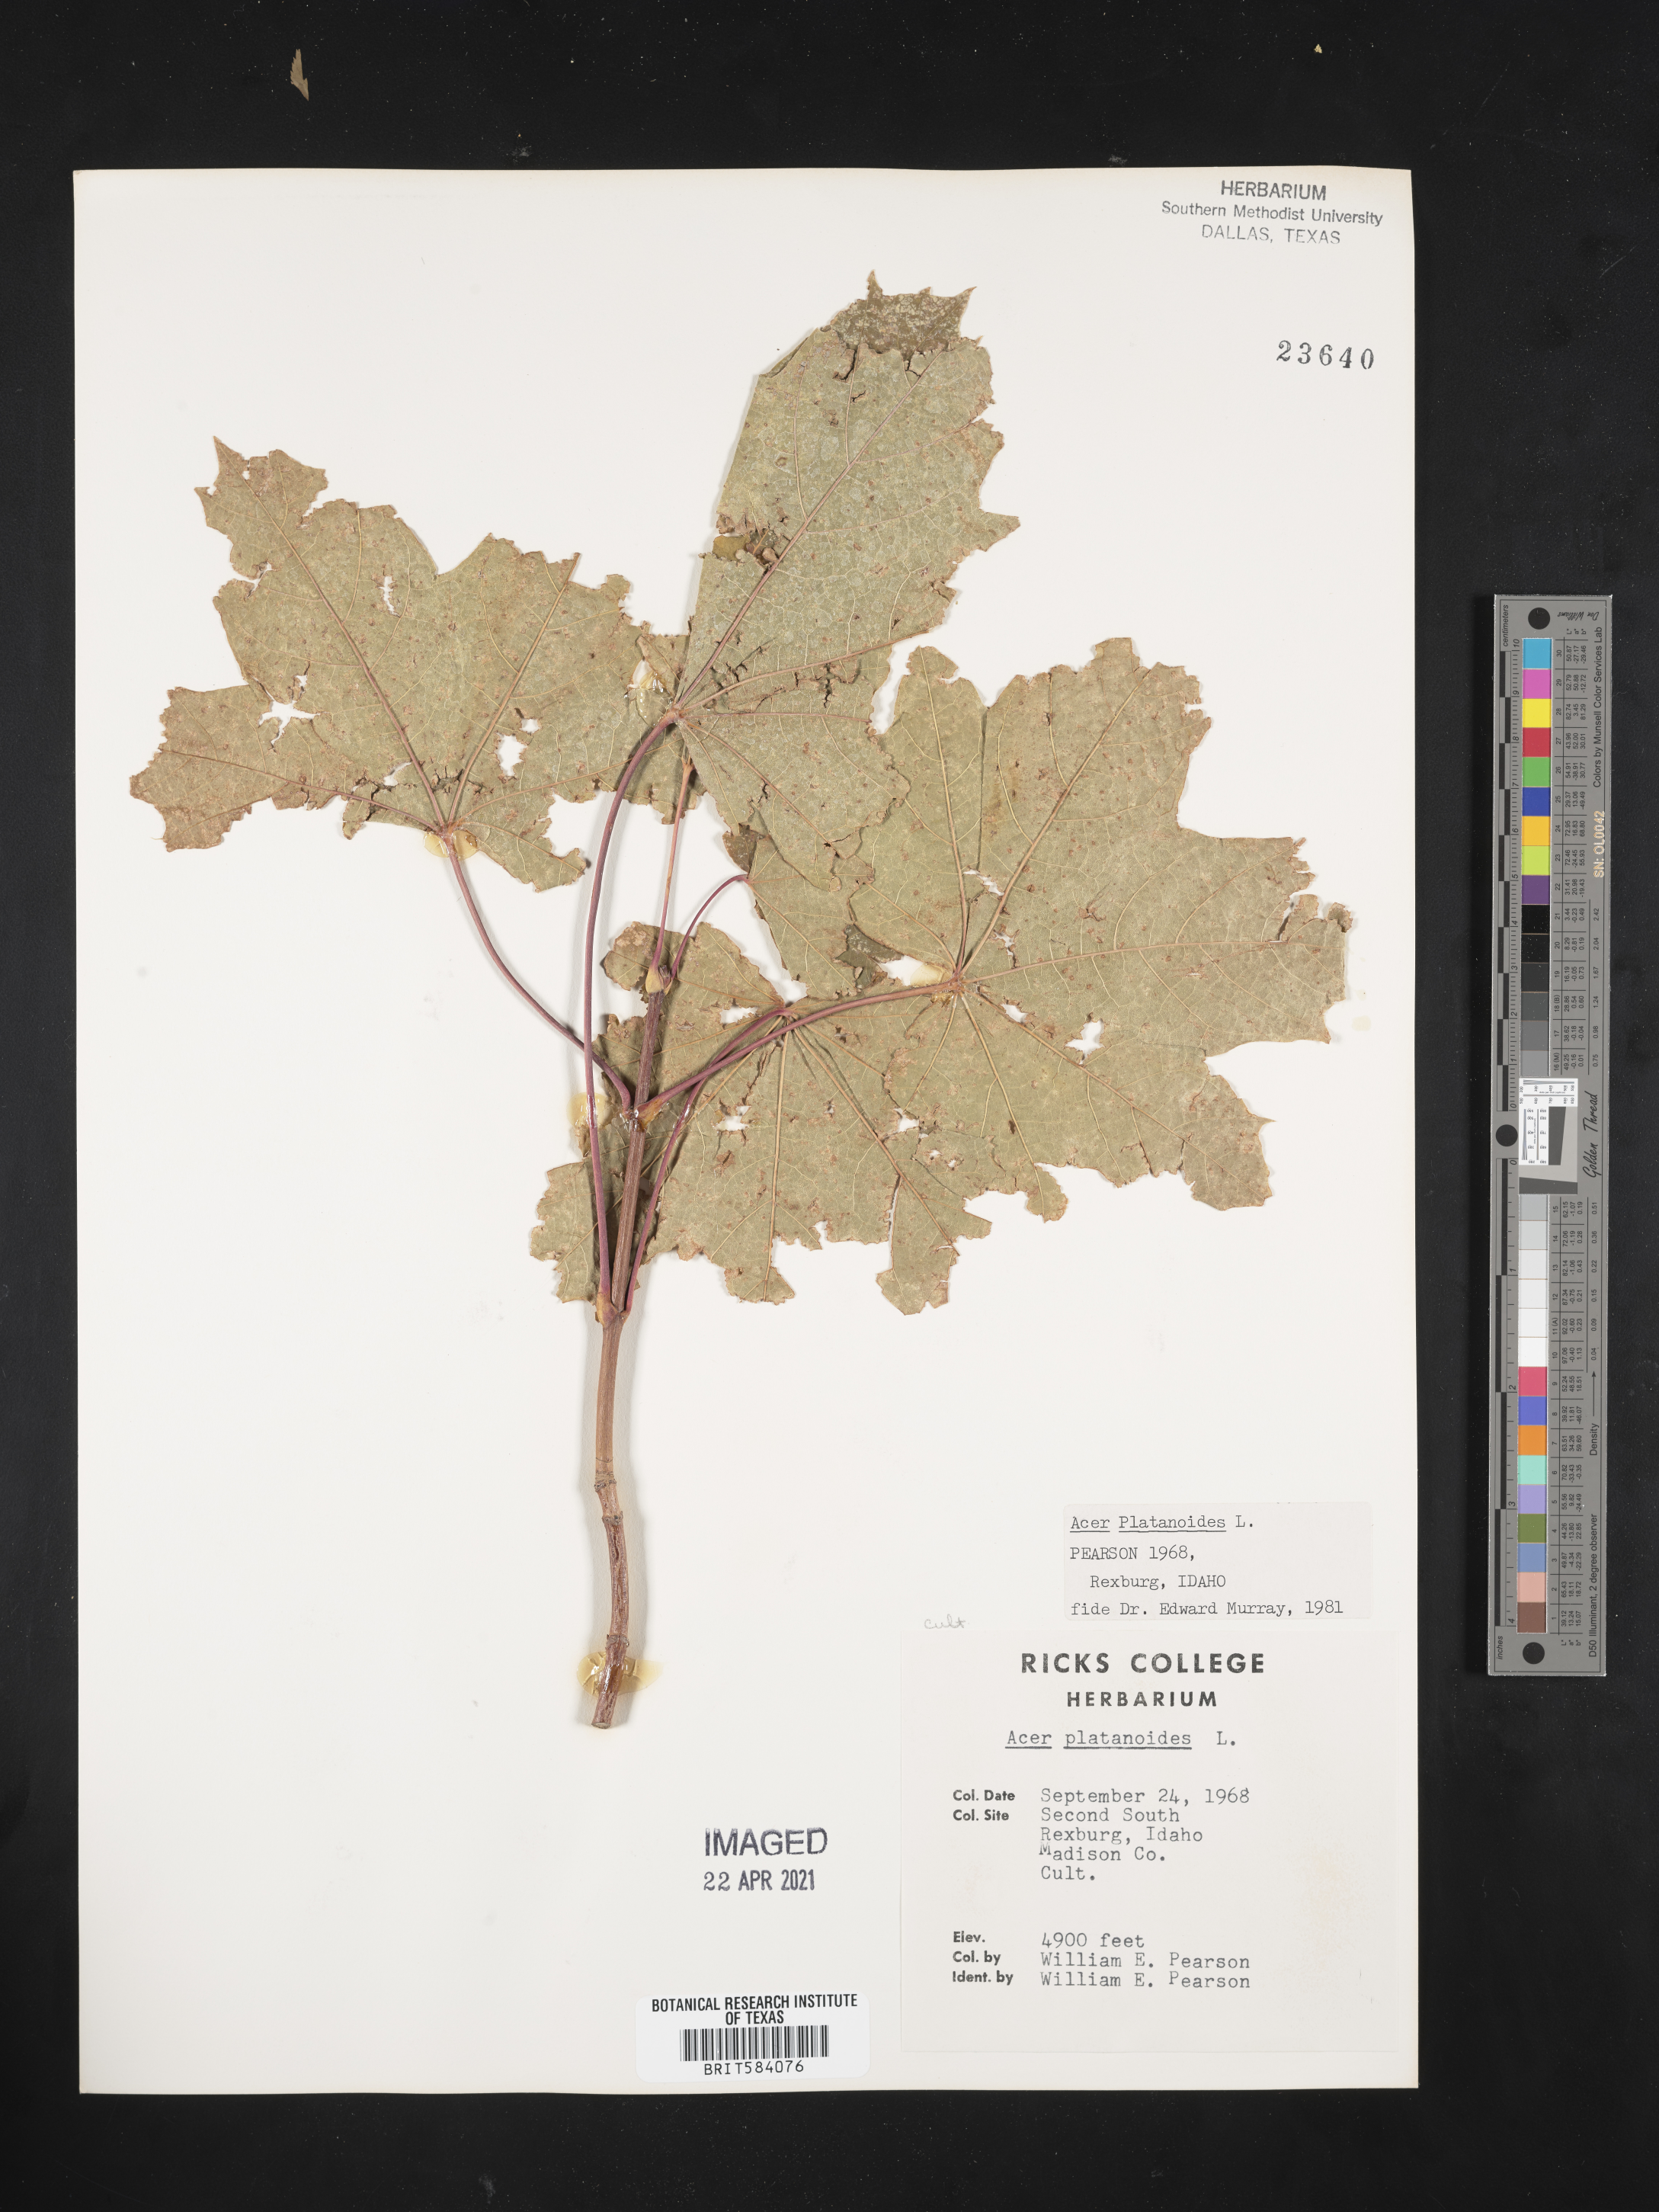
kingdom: Plantae
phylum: Tracheophyta
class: Magnoliopsida
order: Sapindales
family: Sapindaceae
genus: Acer
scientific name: Acer platanoides
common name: Norway maple
